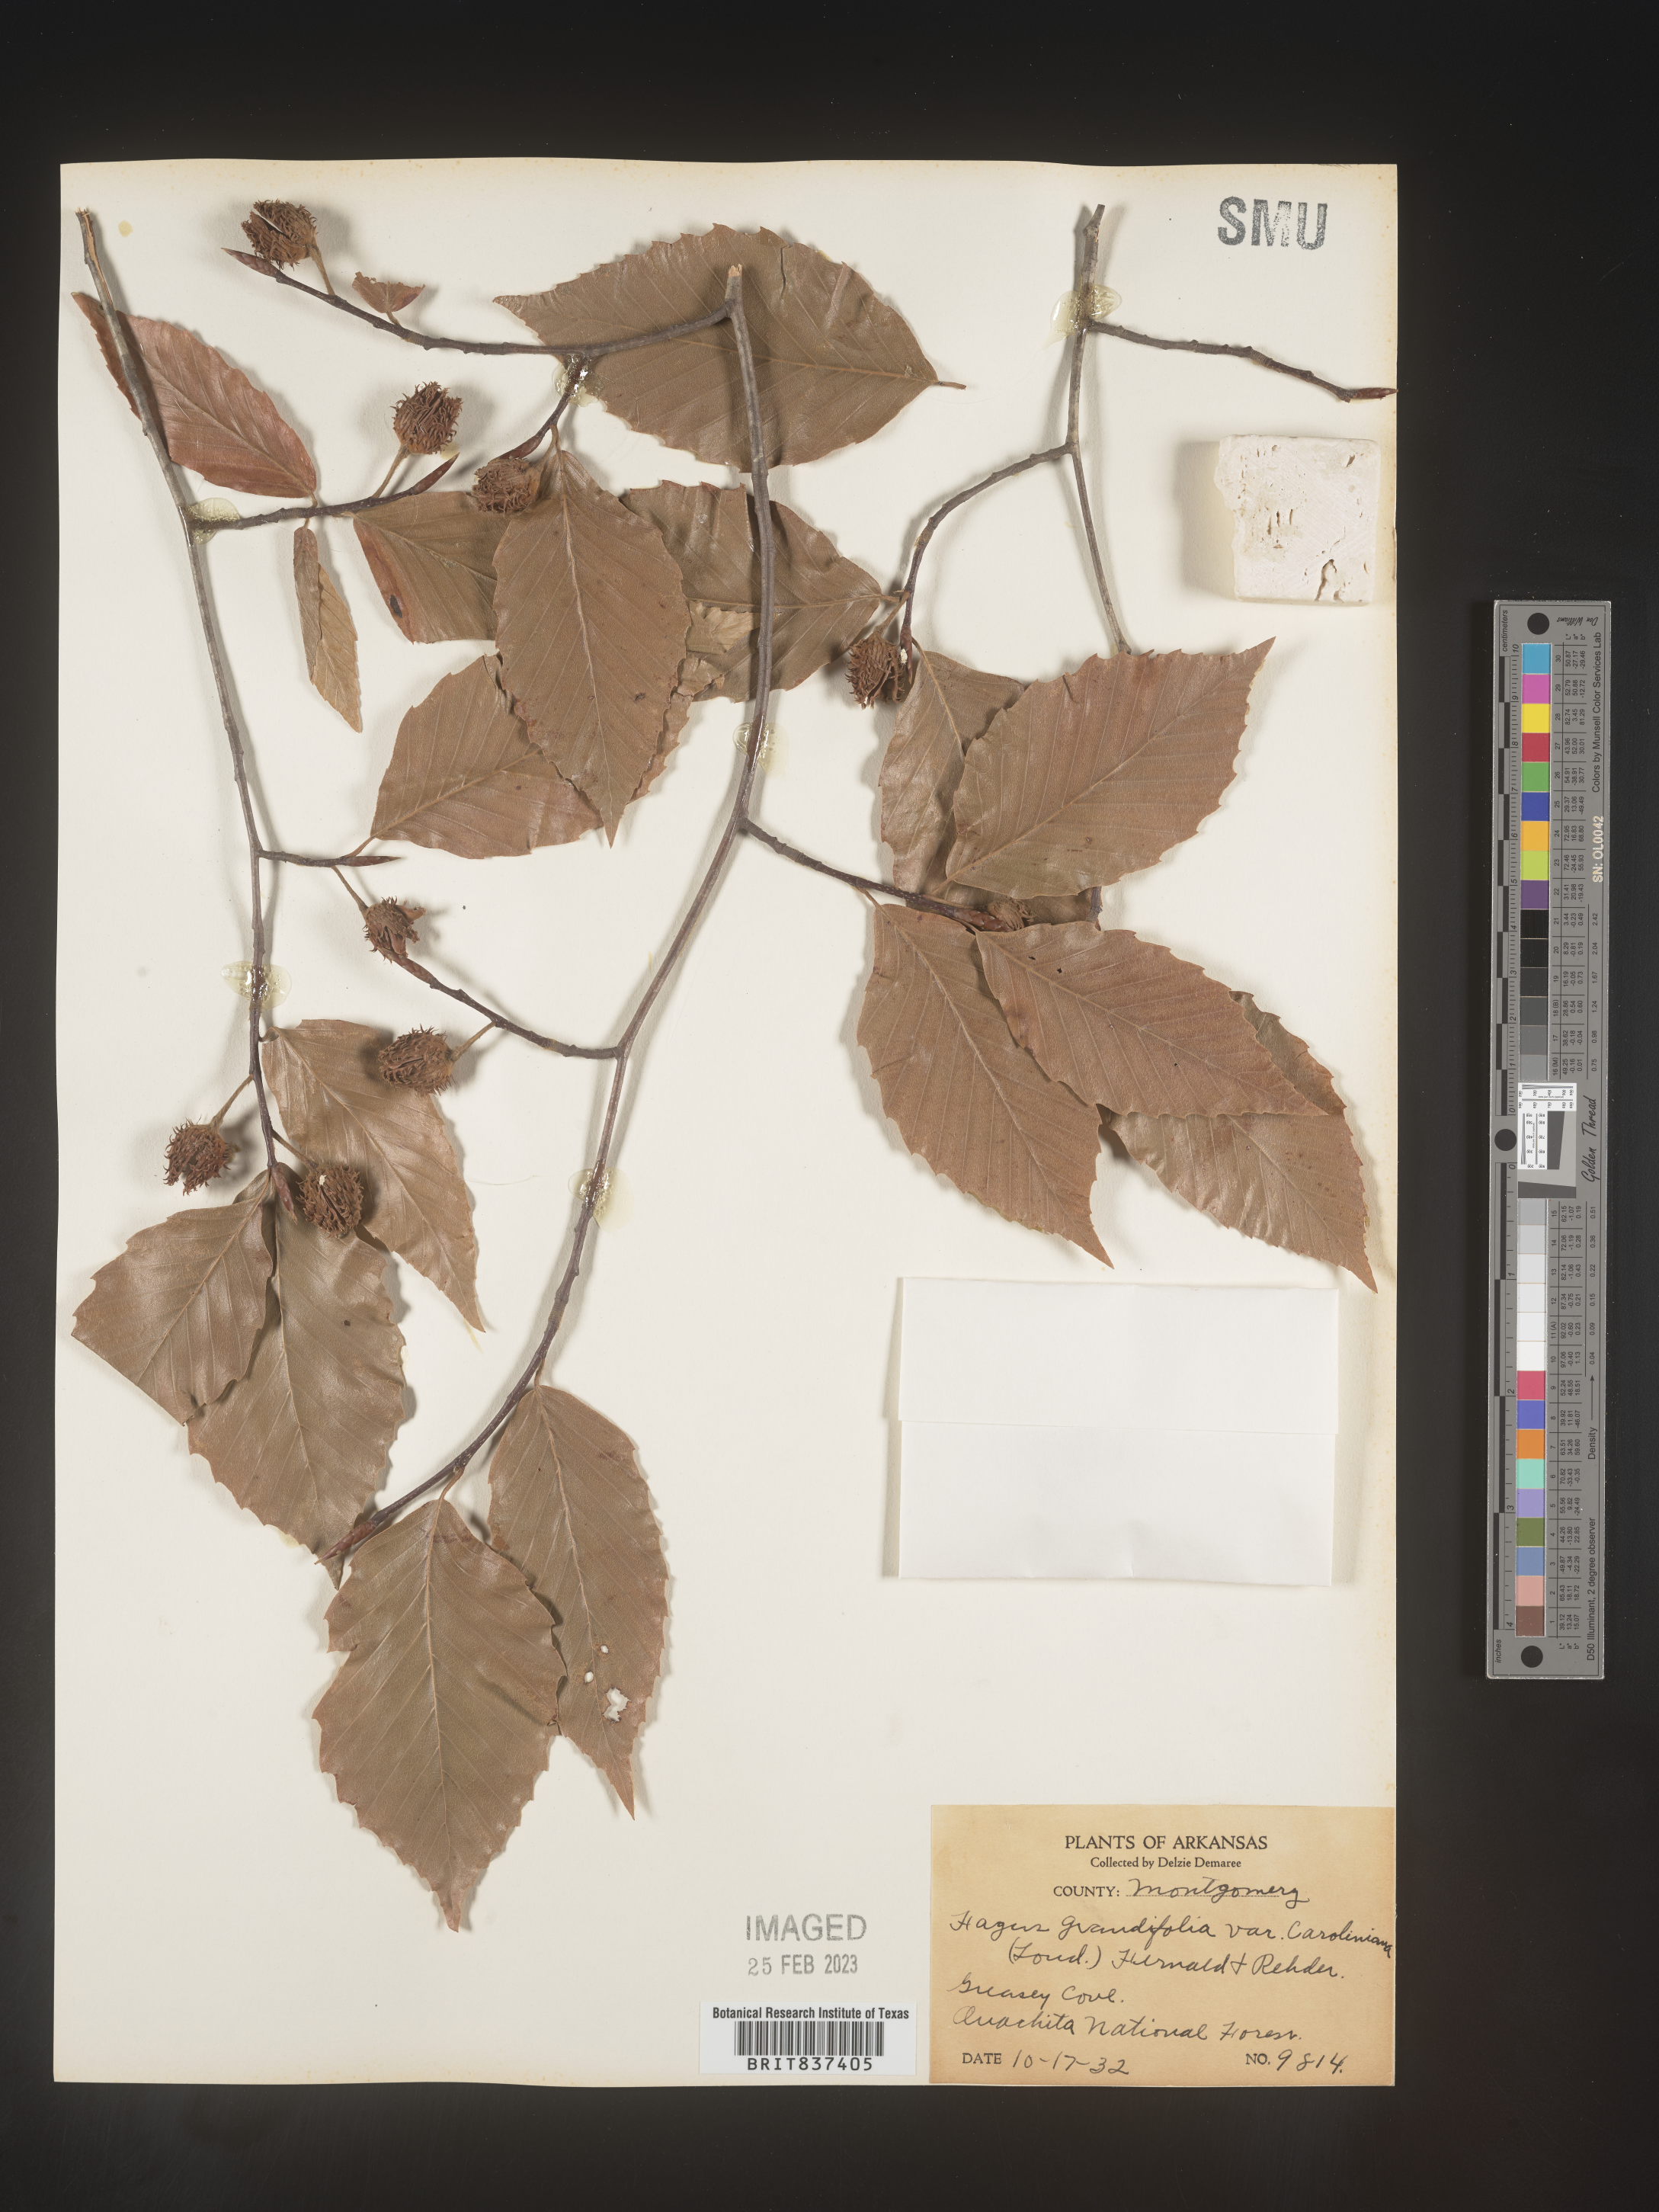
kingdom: Plantae
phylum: Tracheophyta
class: Magnoliopsida
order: Fagales
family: Fagaceae
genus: Fagus
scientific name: Fagus grandifolia
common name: American beech
